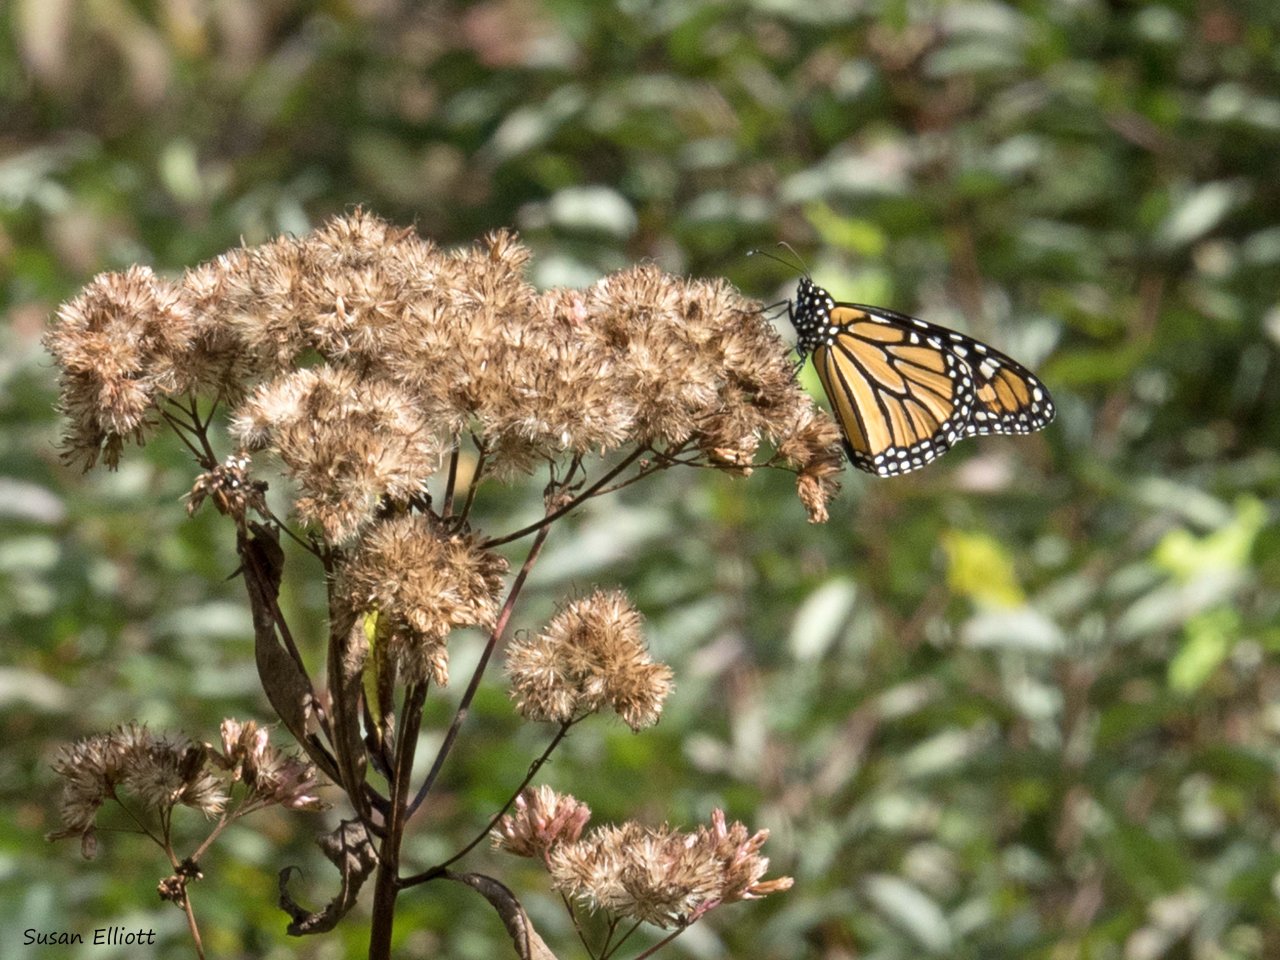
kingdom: Animalia
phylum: Arthropoda
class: Insecta
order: Lepidoptera
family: Nymphalidae
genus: Danaus
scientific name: Danaus plexippus
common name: Monarch
